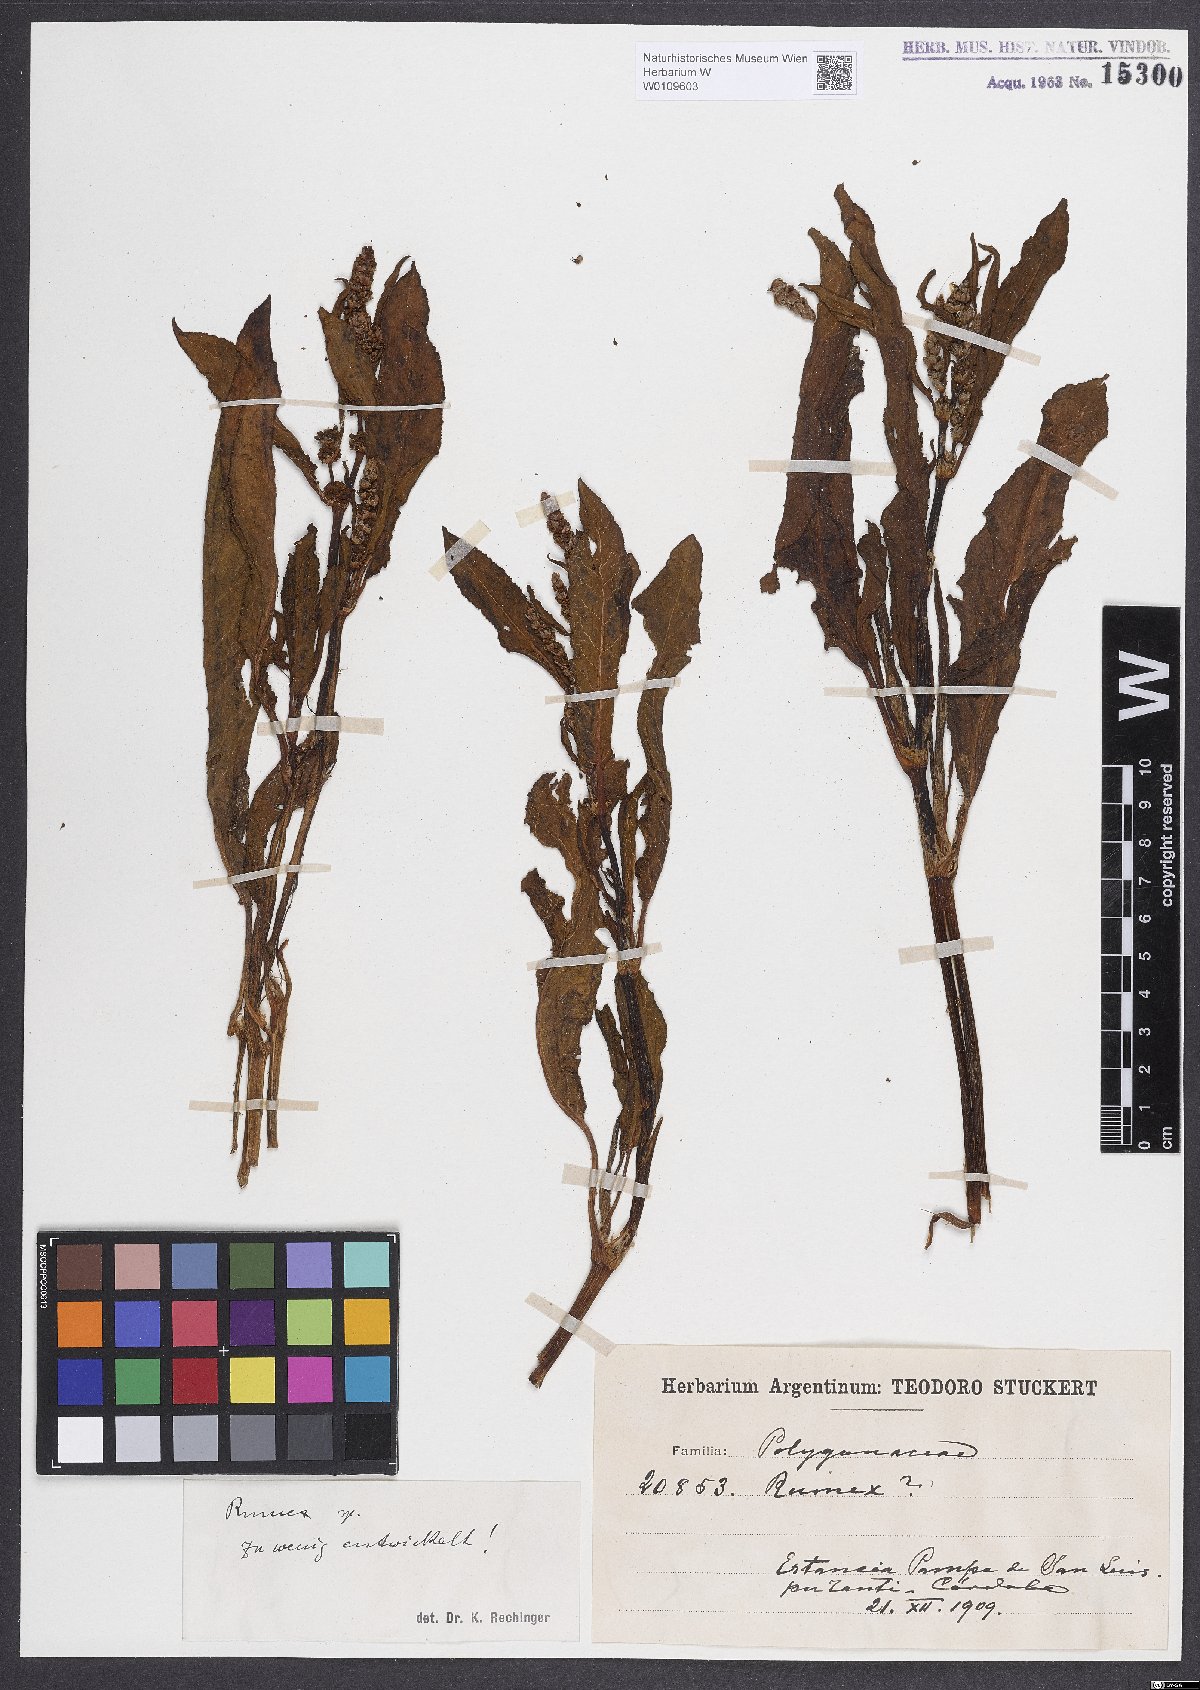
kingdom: Plantae
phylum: Tracheophyta
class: Magnoliopsida
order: Caryophyllales
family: Polygonaceae
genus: Rumex
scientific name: Rumex crispus
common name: Curled dock
